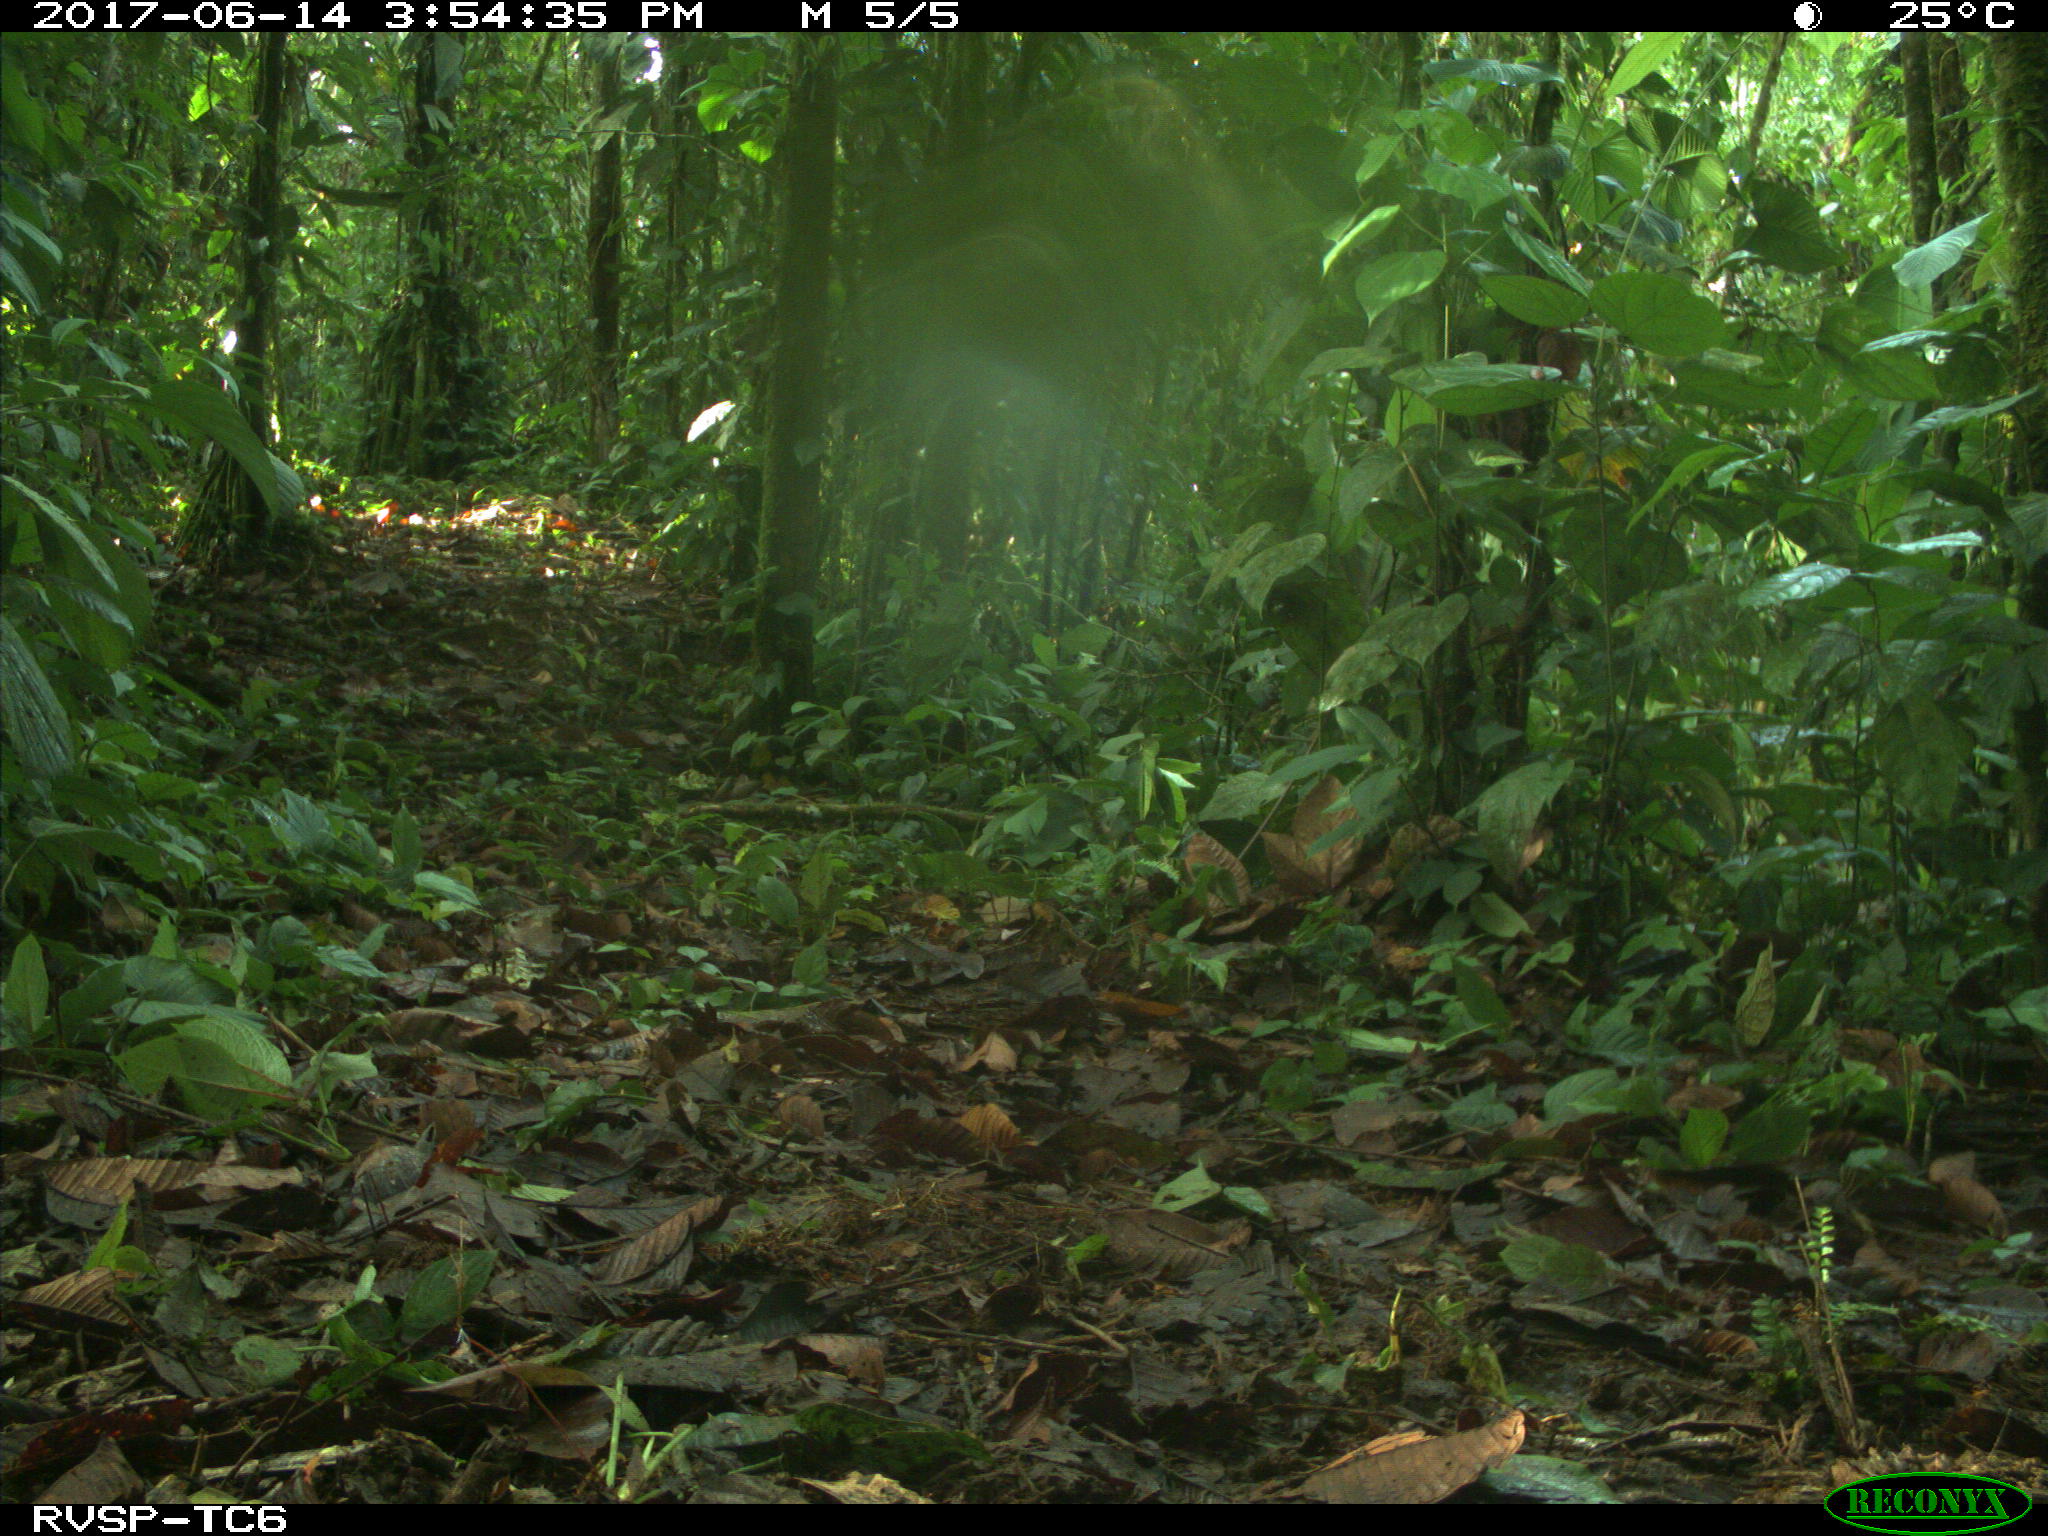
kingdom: Animalia
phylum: Chordata
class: Aves
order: Accipitriformes
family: Accipitridae
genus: Buteogallus
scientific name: Buteogallus urubitinga
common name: Great black hawk
